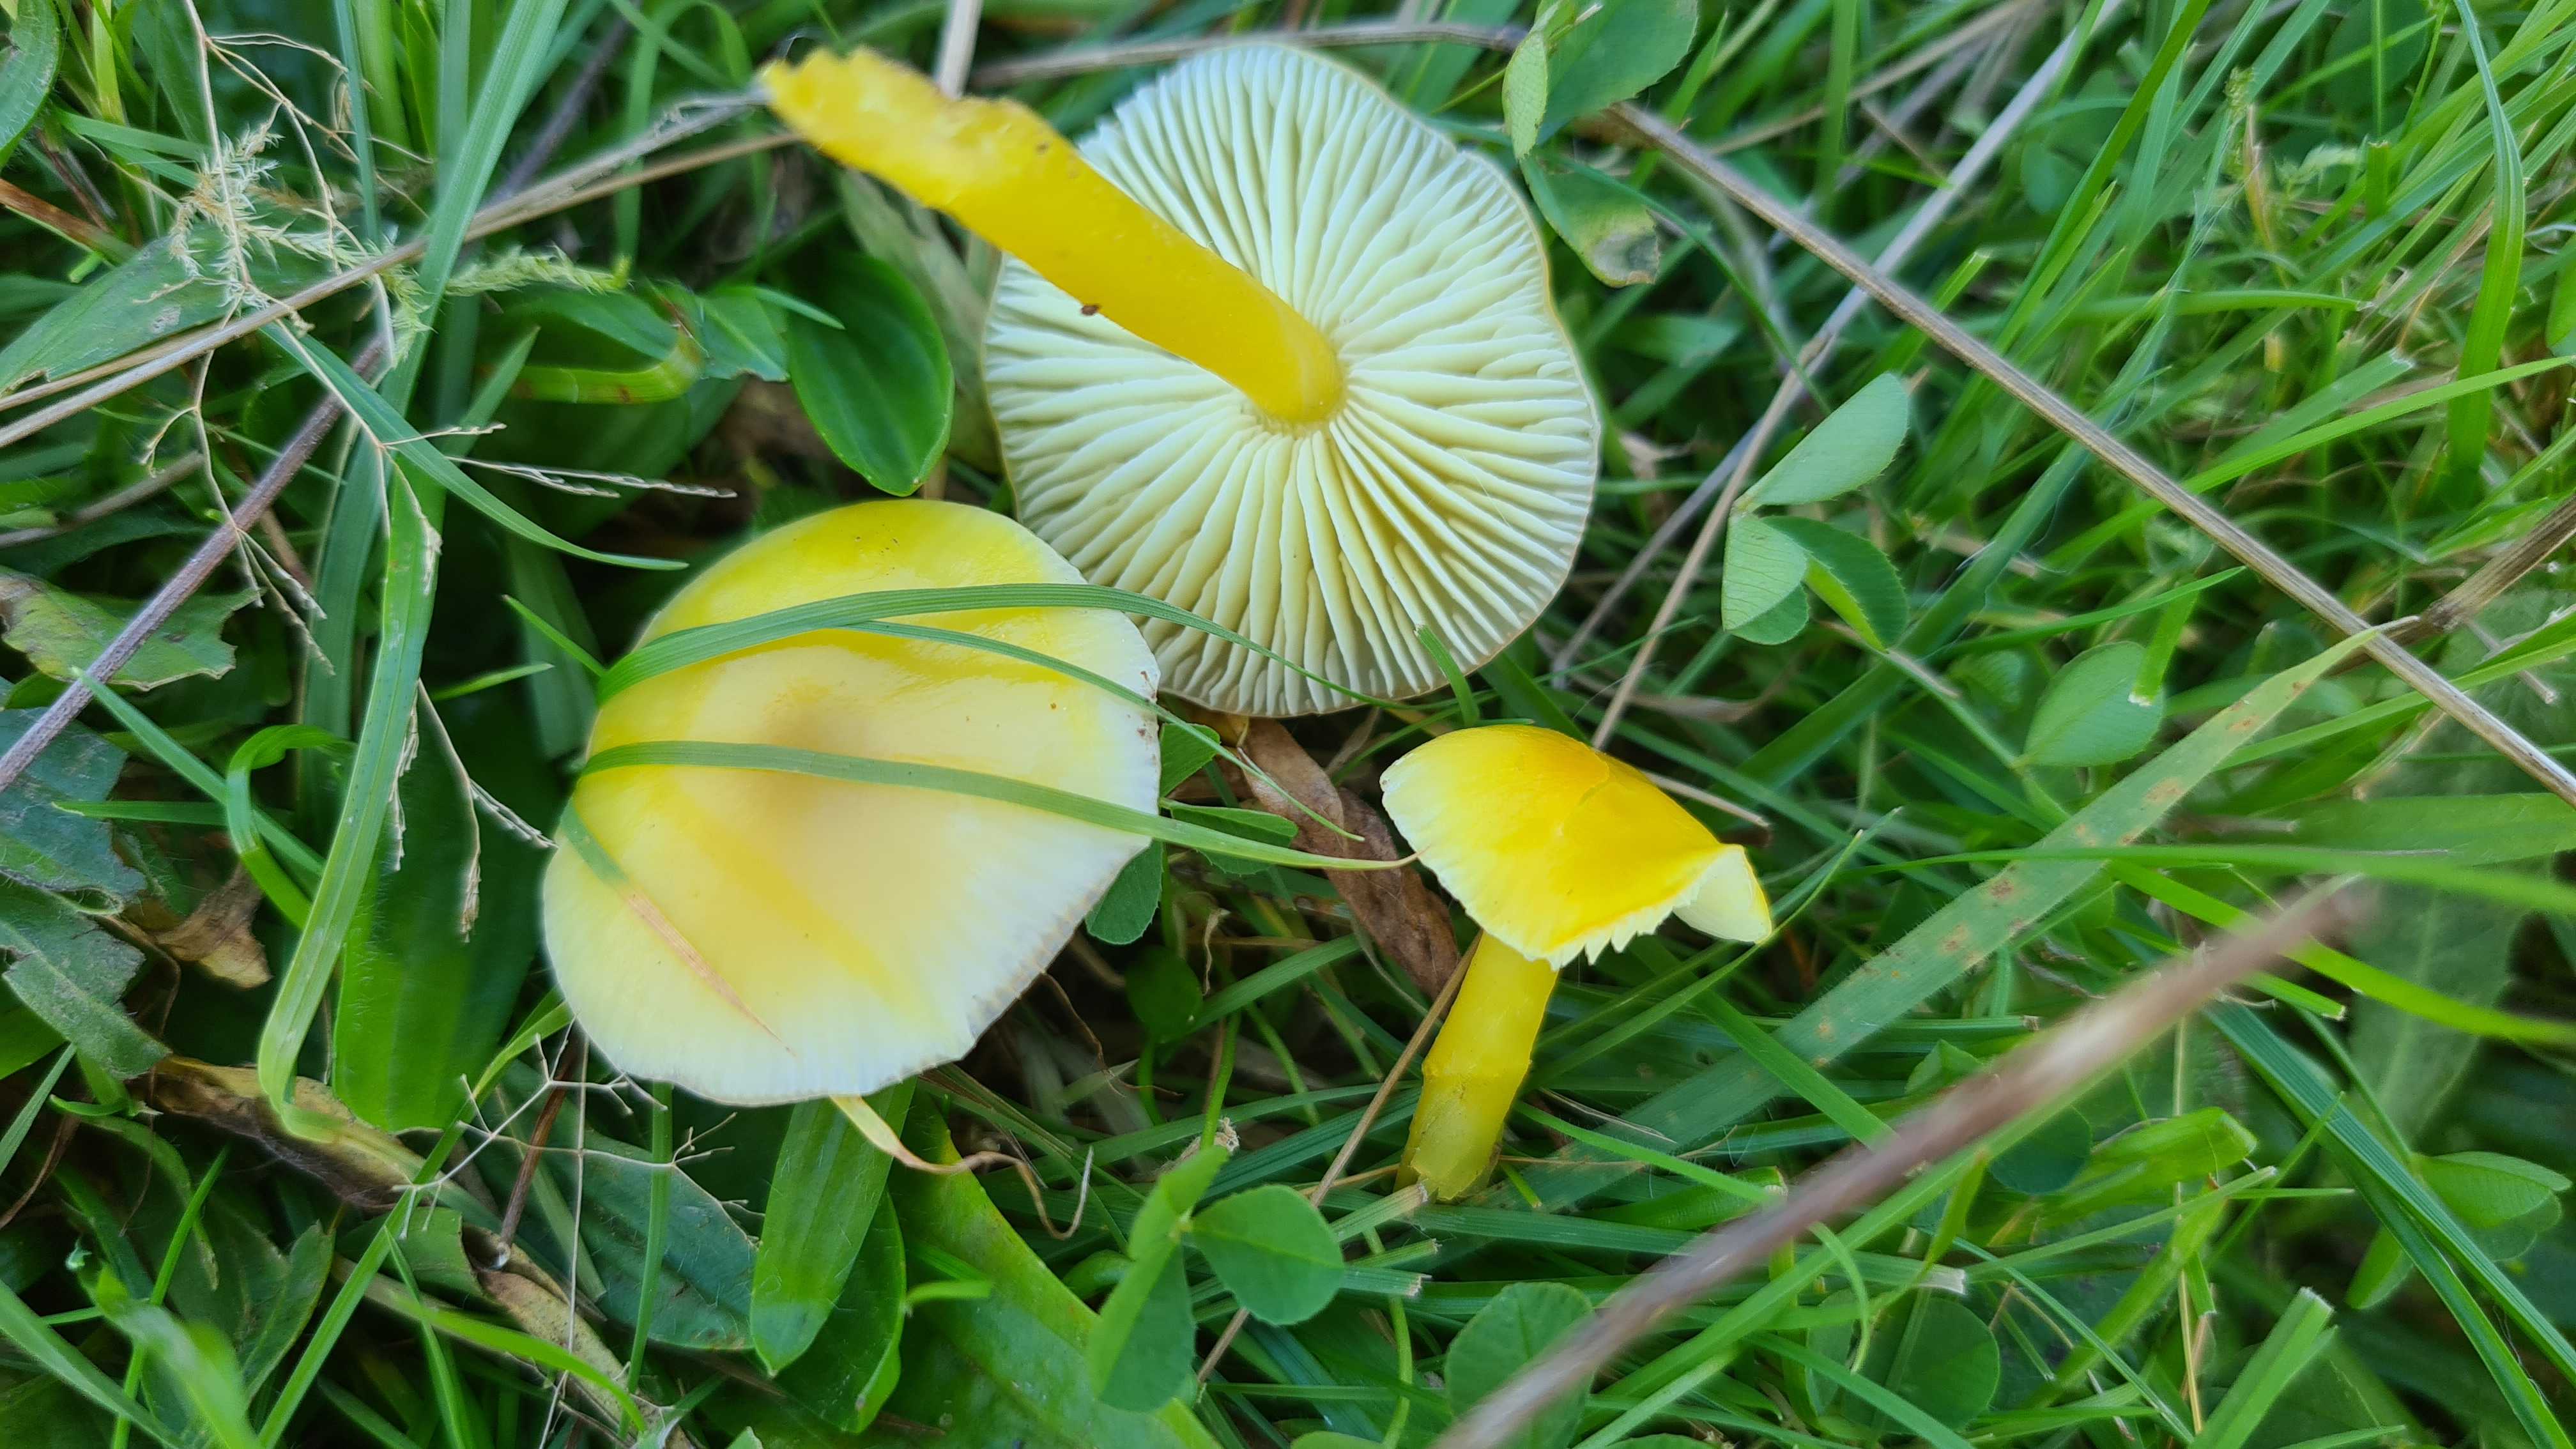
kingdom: Fungi
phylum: Basidiomycota
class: Agaricomycetes
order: Agaricales
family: Hygrophoraceae
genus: Hygrocybe
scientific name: Hygrocybe ceracea
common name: voksgul vokshat
